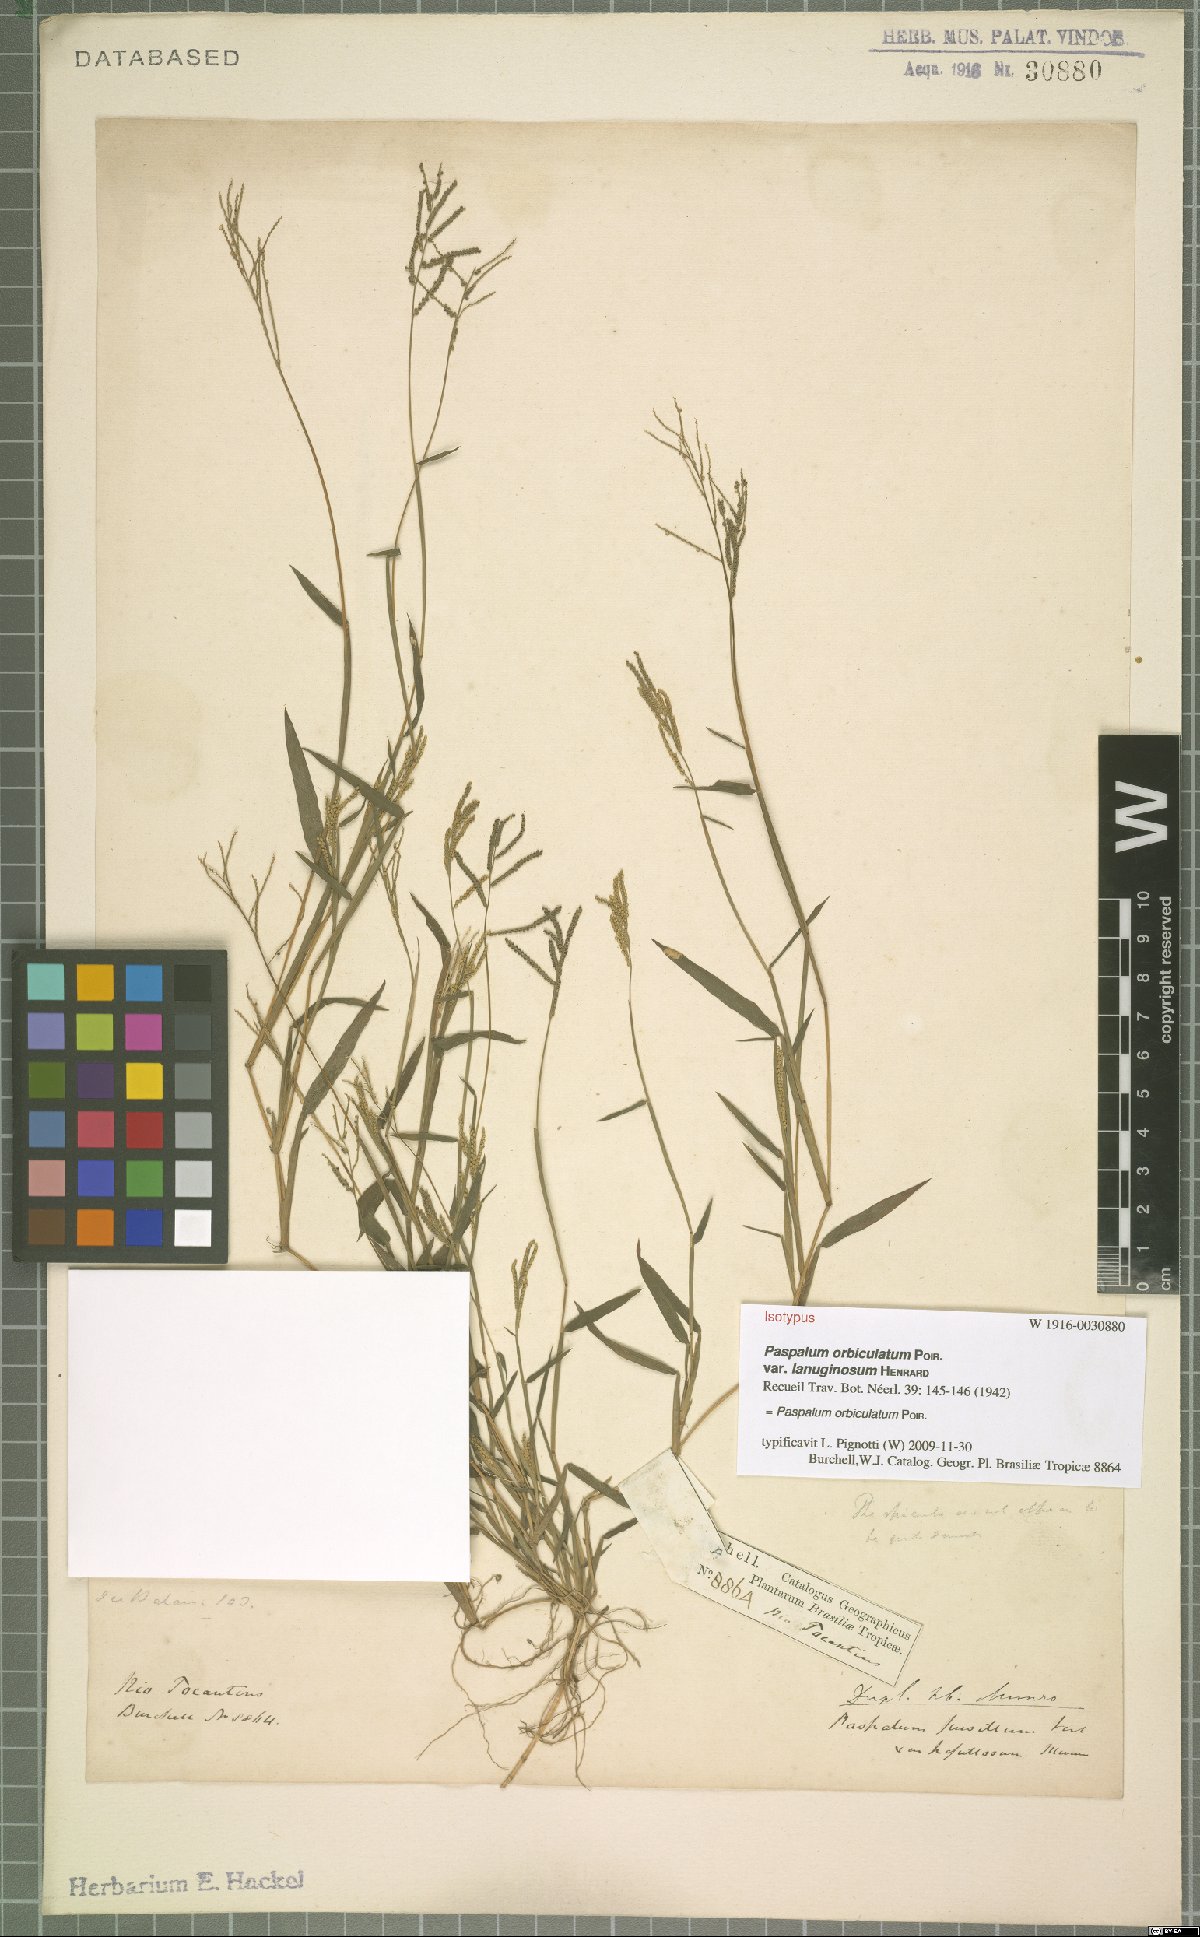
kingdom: Plantae
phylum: Tracheophyta
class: Liliopsida
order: Poales
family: Poaceae
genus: Paspalum
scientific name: Paspalum orbiculatum
